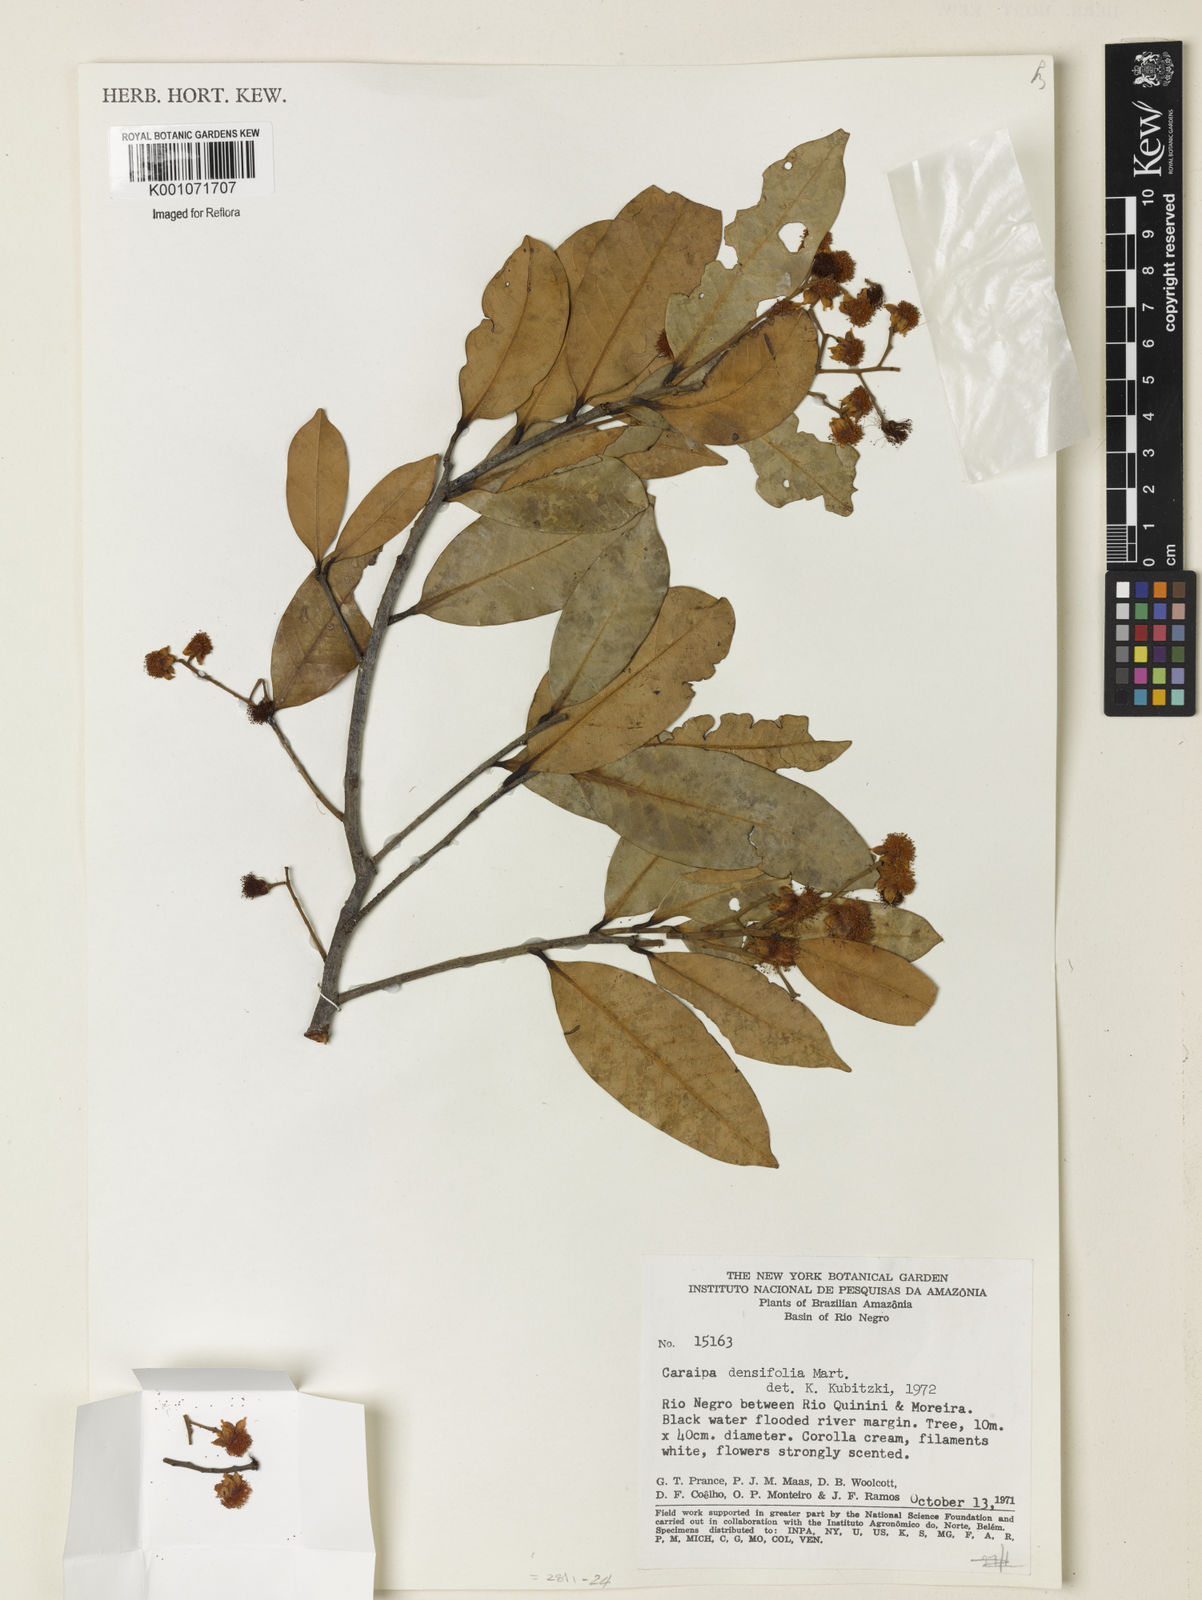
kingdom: Plantae
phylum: Tracheophyta
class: Magnoliopsida
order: Malpighiales
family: Calophyllaceae
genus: Caraipa
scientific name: Caraipa densifolia
